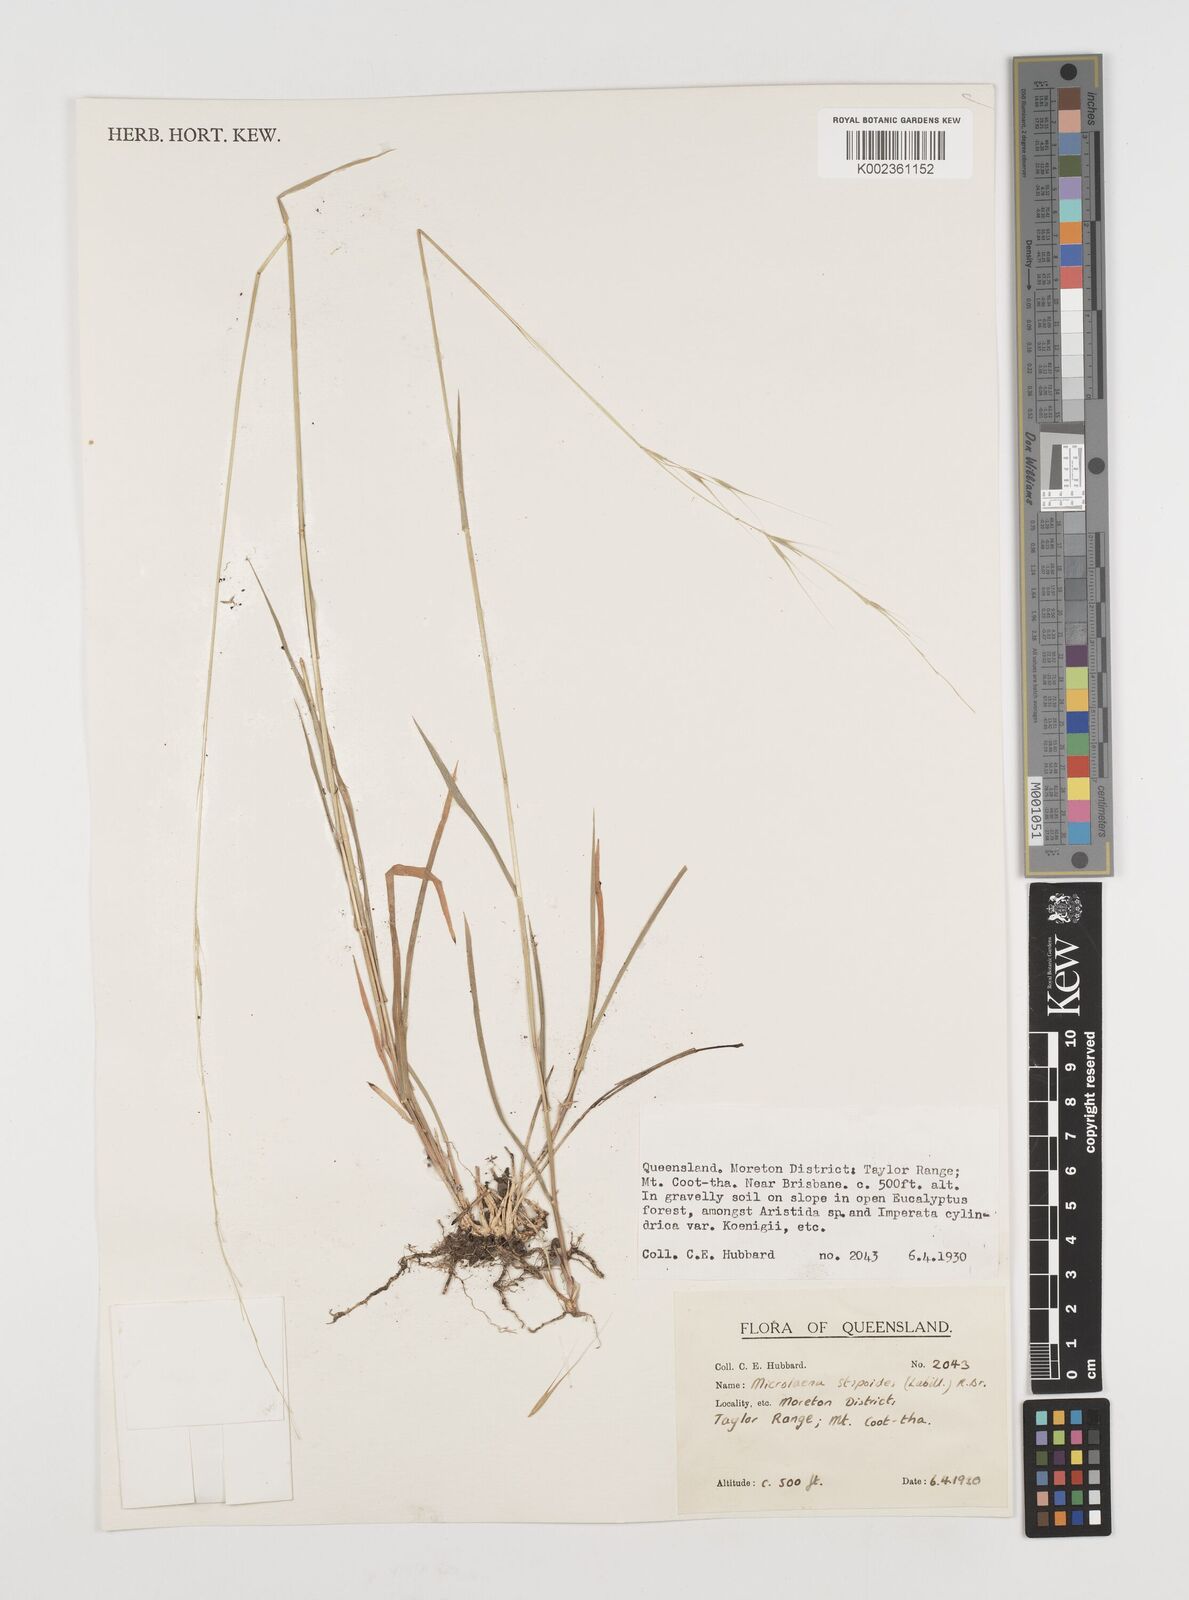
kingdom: Plantae
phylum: Tracheophyta
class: Liliopsida
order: Poales
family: Poaceae
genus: Microlaena
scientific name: Microlaena stipoides
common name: Meadow ricegrass
